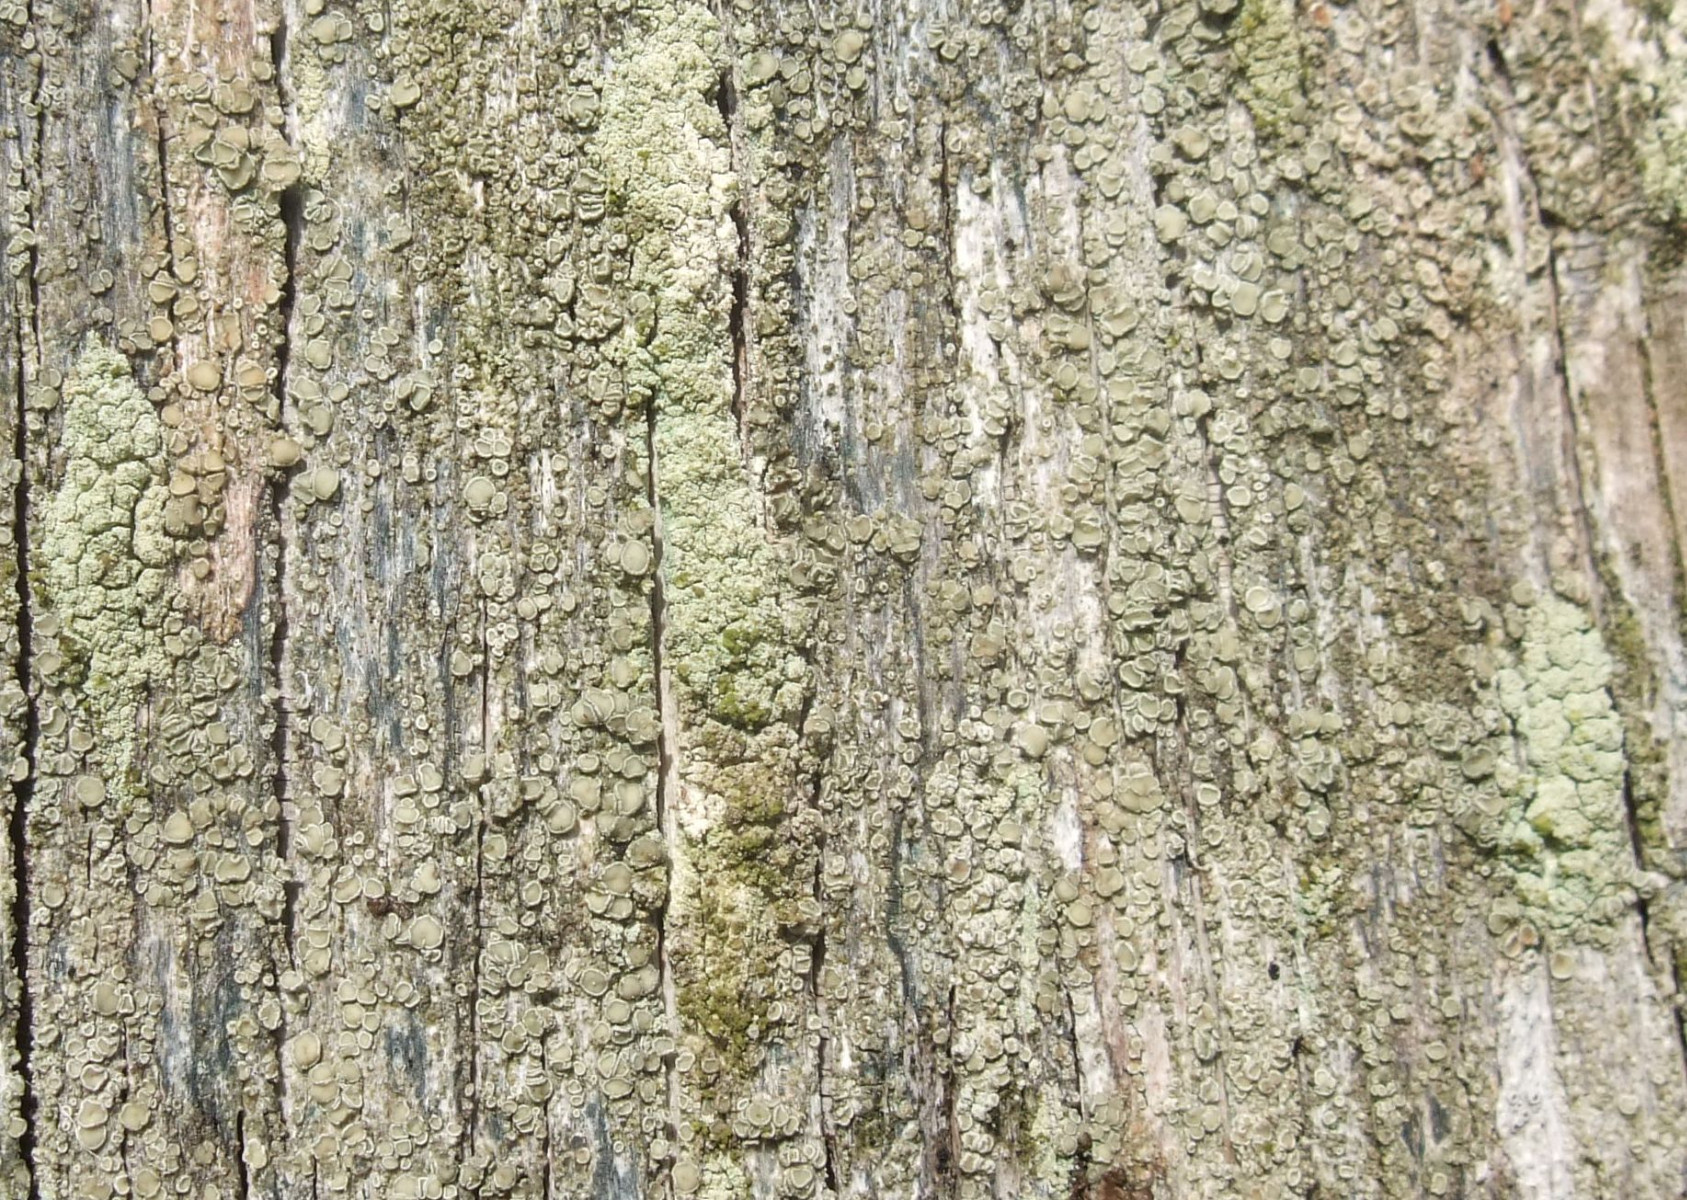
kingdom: Fungi
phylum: Ascomycota
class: Lecanoromycetes
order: Lecanorales
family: Lecanoraceae
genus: Straminella
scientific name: Straminella conizaeoides
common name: by-kantskivelav
